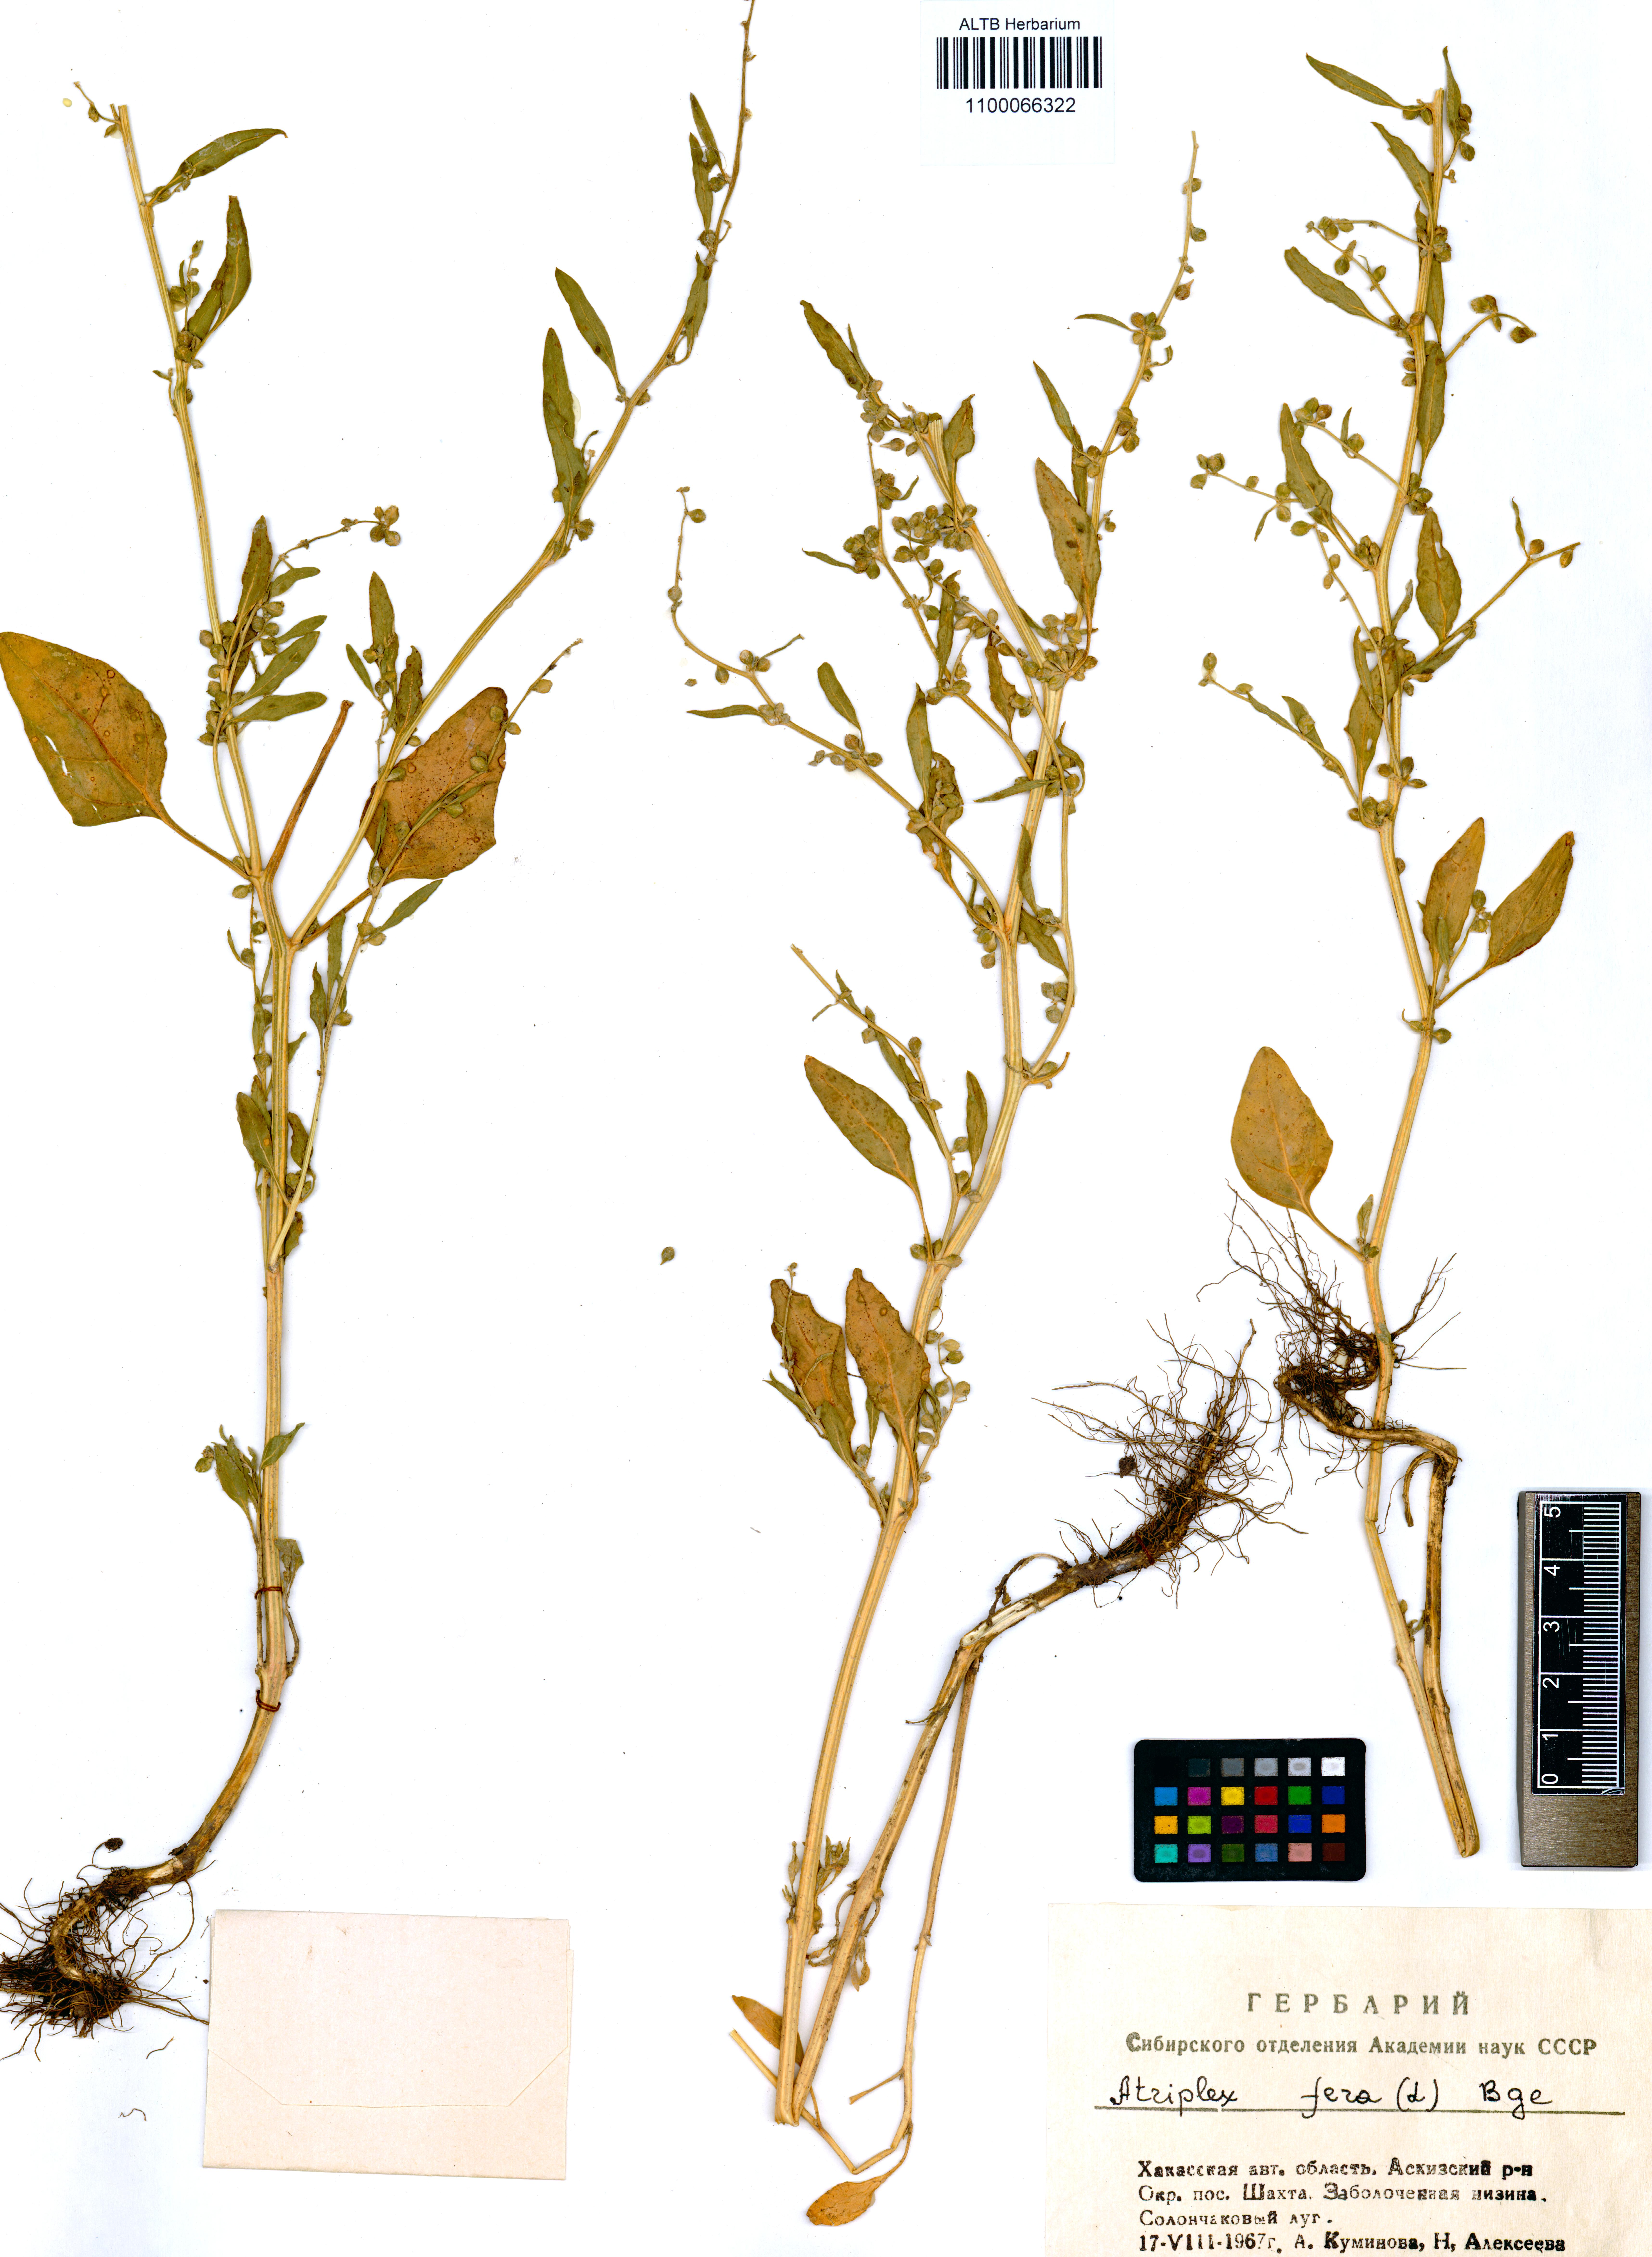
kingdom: Plantae
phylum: Tracheophyta
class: Magnoliopsida
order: Caryophyllales
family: Amaranthaceae
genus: Atriplex
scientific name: Atriplex fera
